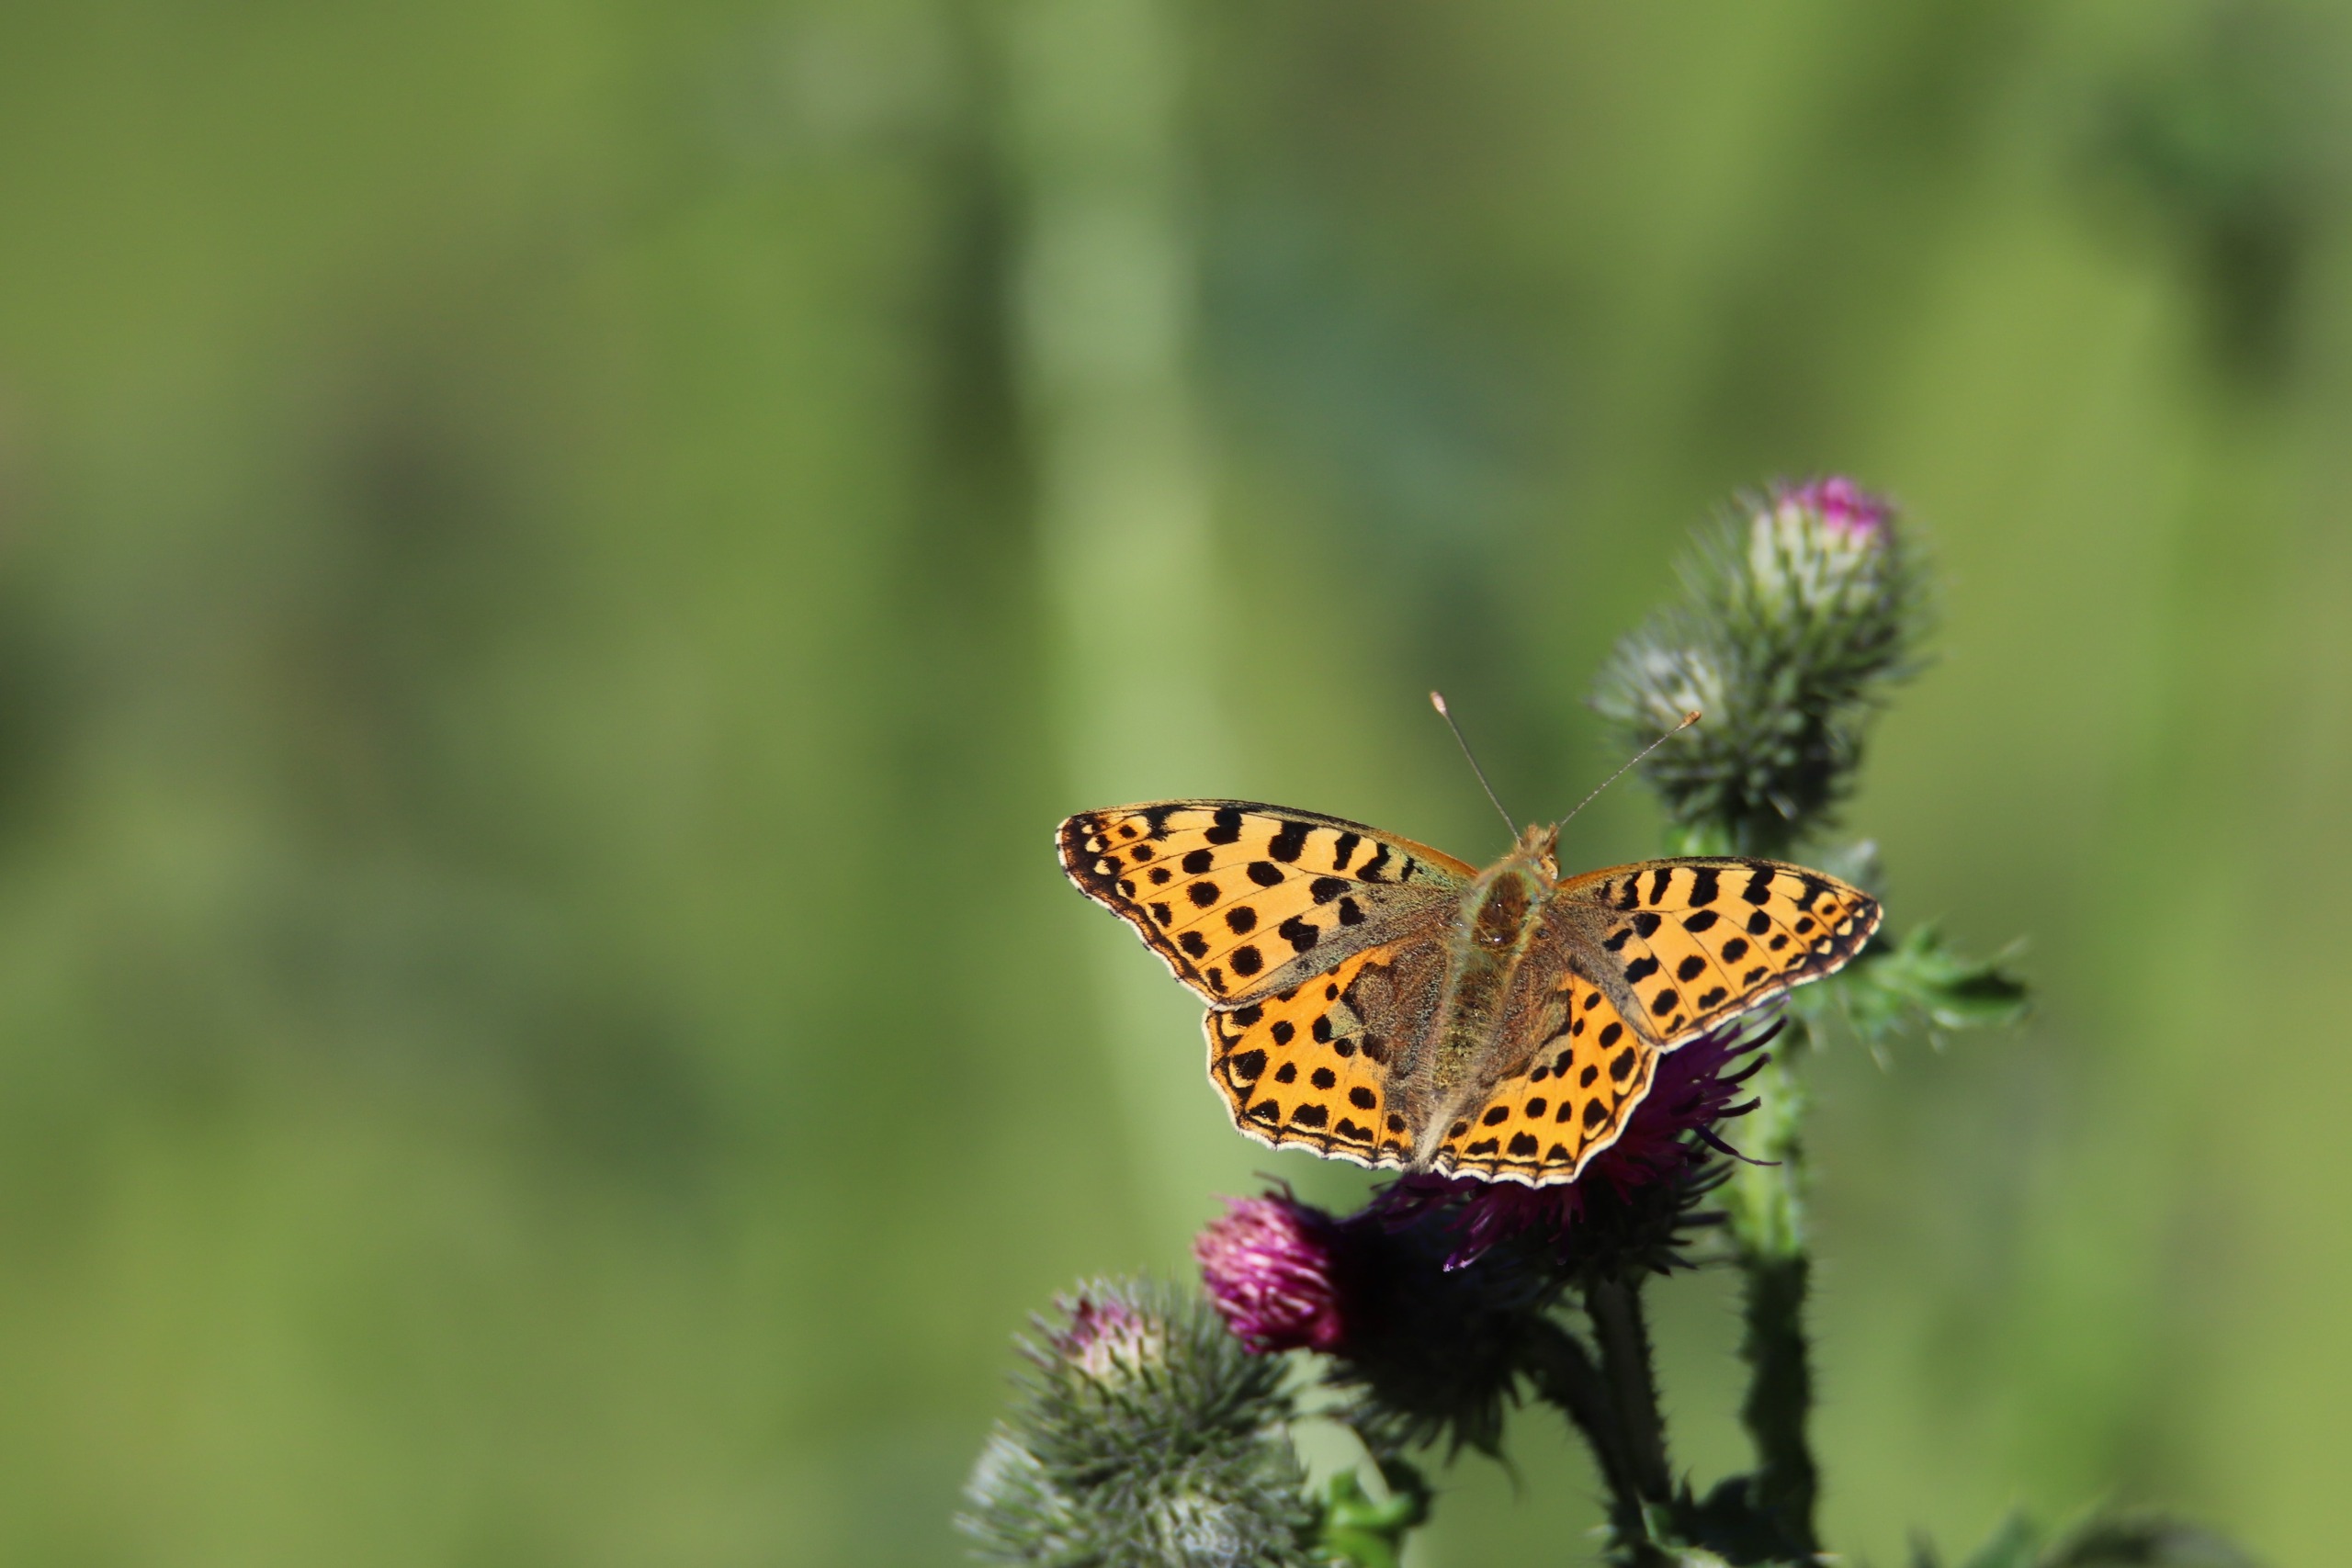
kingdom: Animalia
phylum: Arthropoda
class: Insecta
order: Lepidoptera
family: Nymphalidae
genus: Issoria
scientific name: Issoria lathonia
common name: Storplettet perlemorsommerfugl
